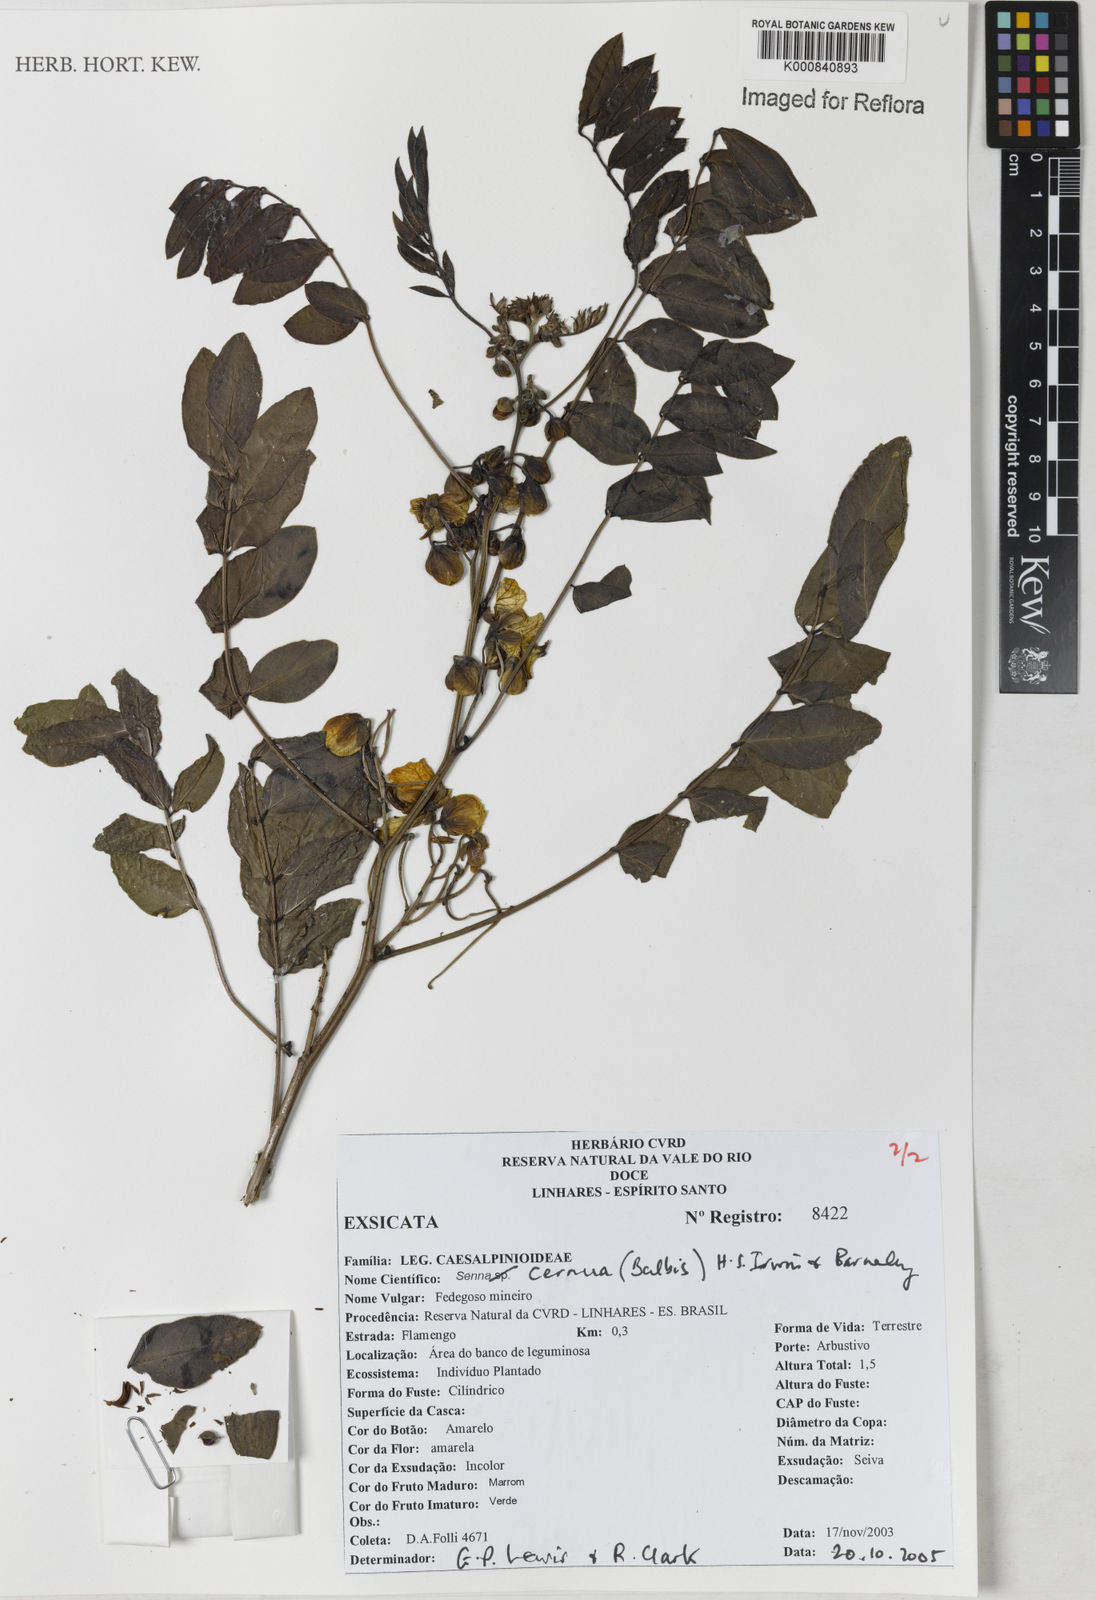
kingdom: Plantae
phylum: Tracheophyta
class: Magnoliopsida
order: Fabales
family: Fabaceae
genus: Senna
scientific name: Senna cernua
